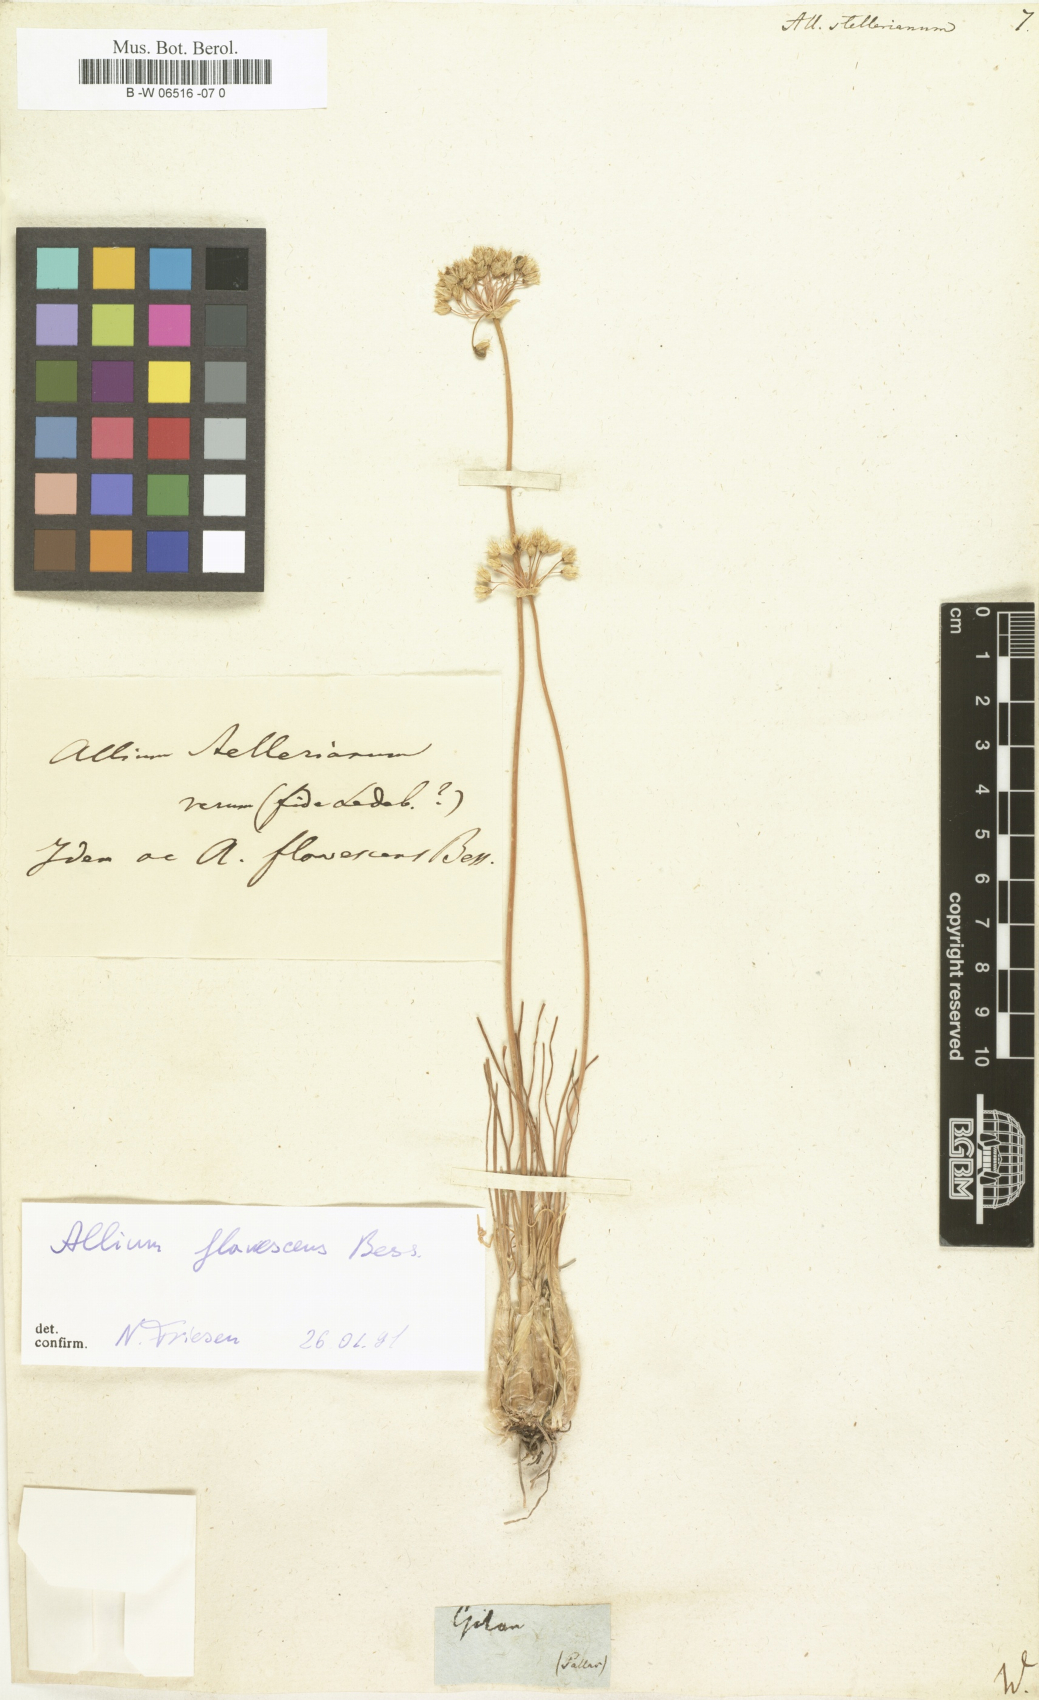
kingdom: Plantae
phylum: Tracheophyta
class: Liliopsida
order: Asparagales
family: Amaryllidaceae
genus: Allium
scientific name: Allium stellerianum
